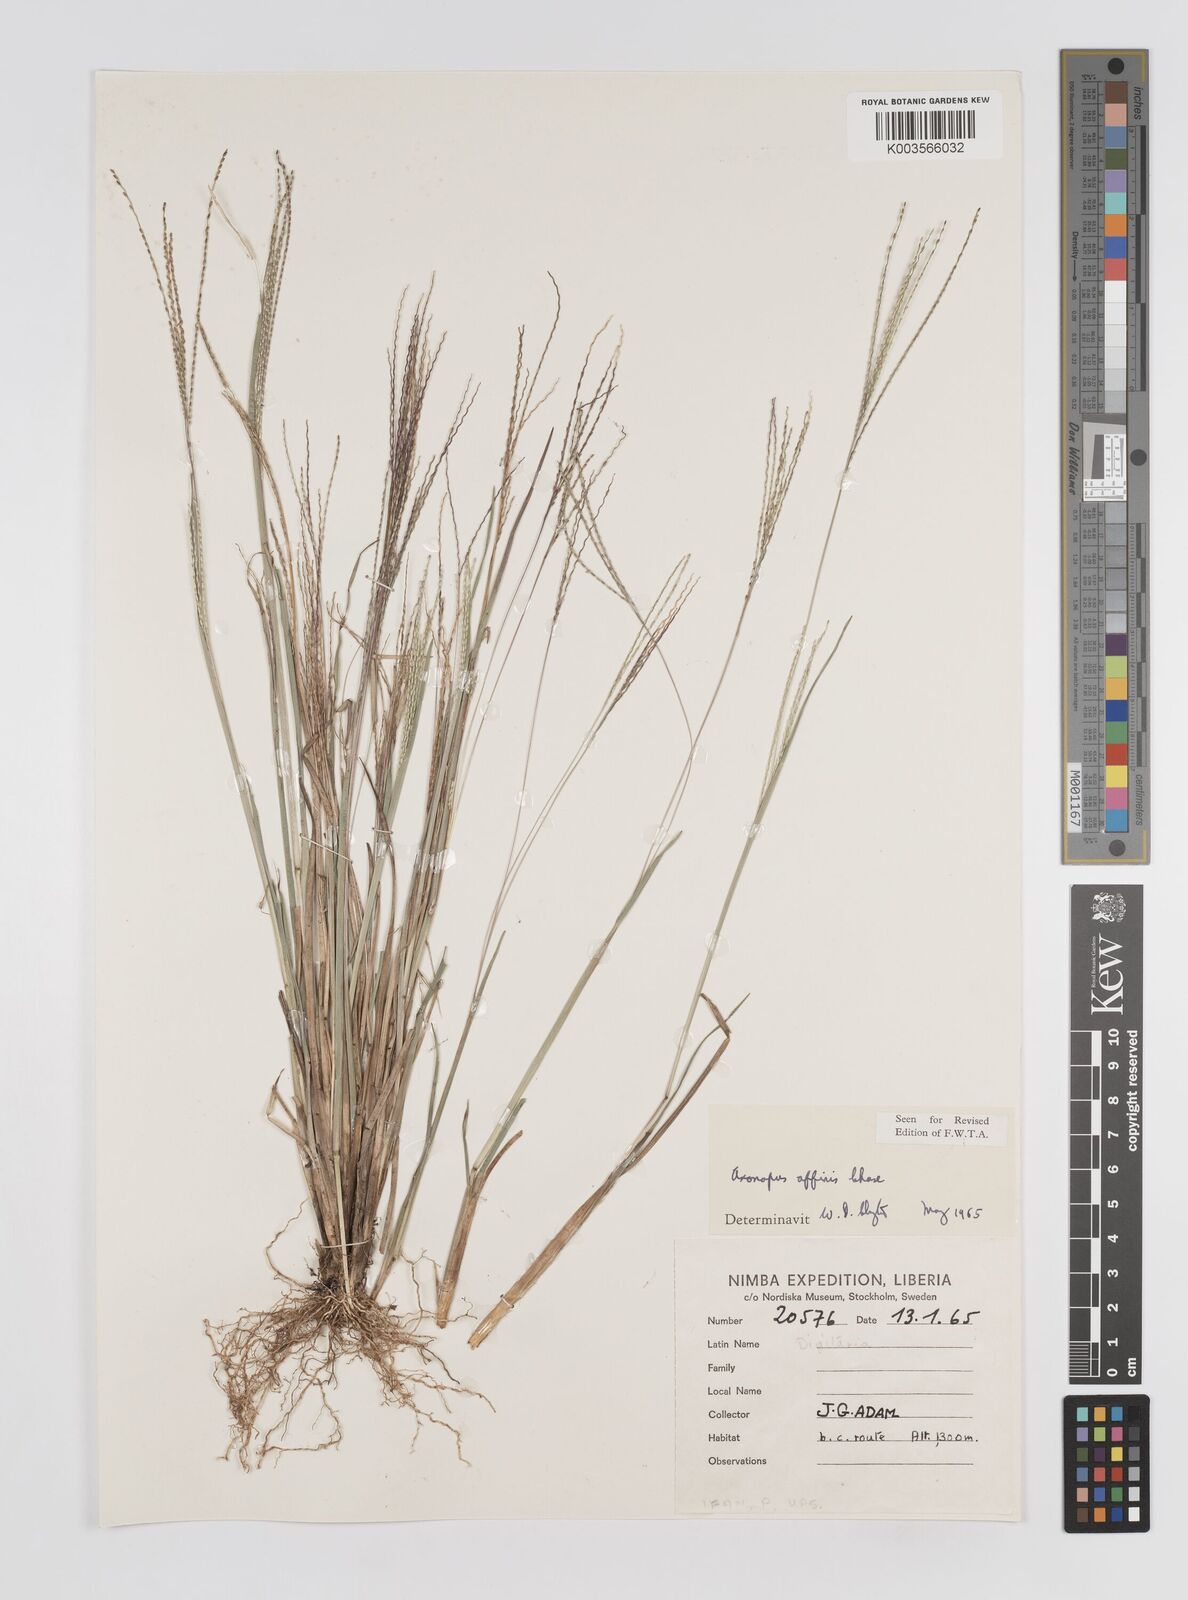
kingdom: Plantae
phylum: Tracheophyta
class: Liliopsida
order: Poales
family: Poaceae
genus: Axonopus
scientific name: Axonopus fissifolius
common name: Common carpetgrass
